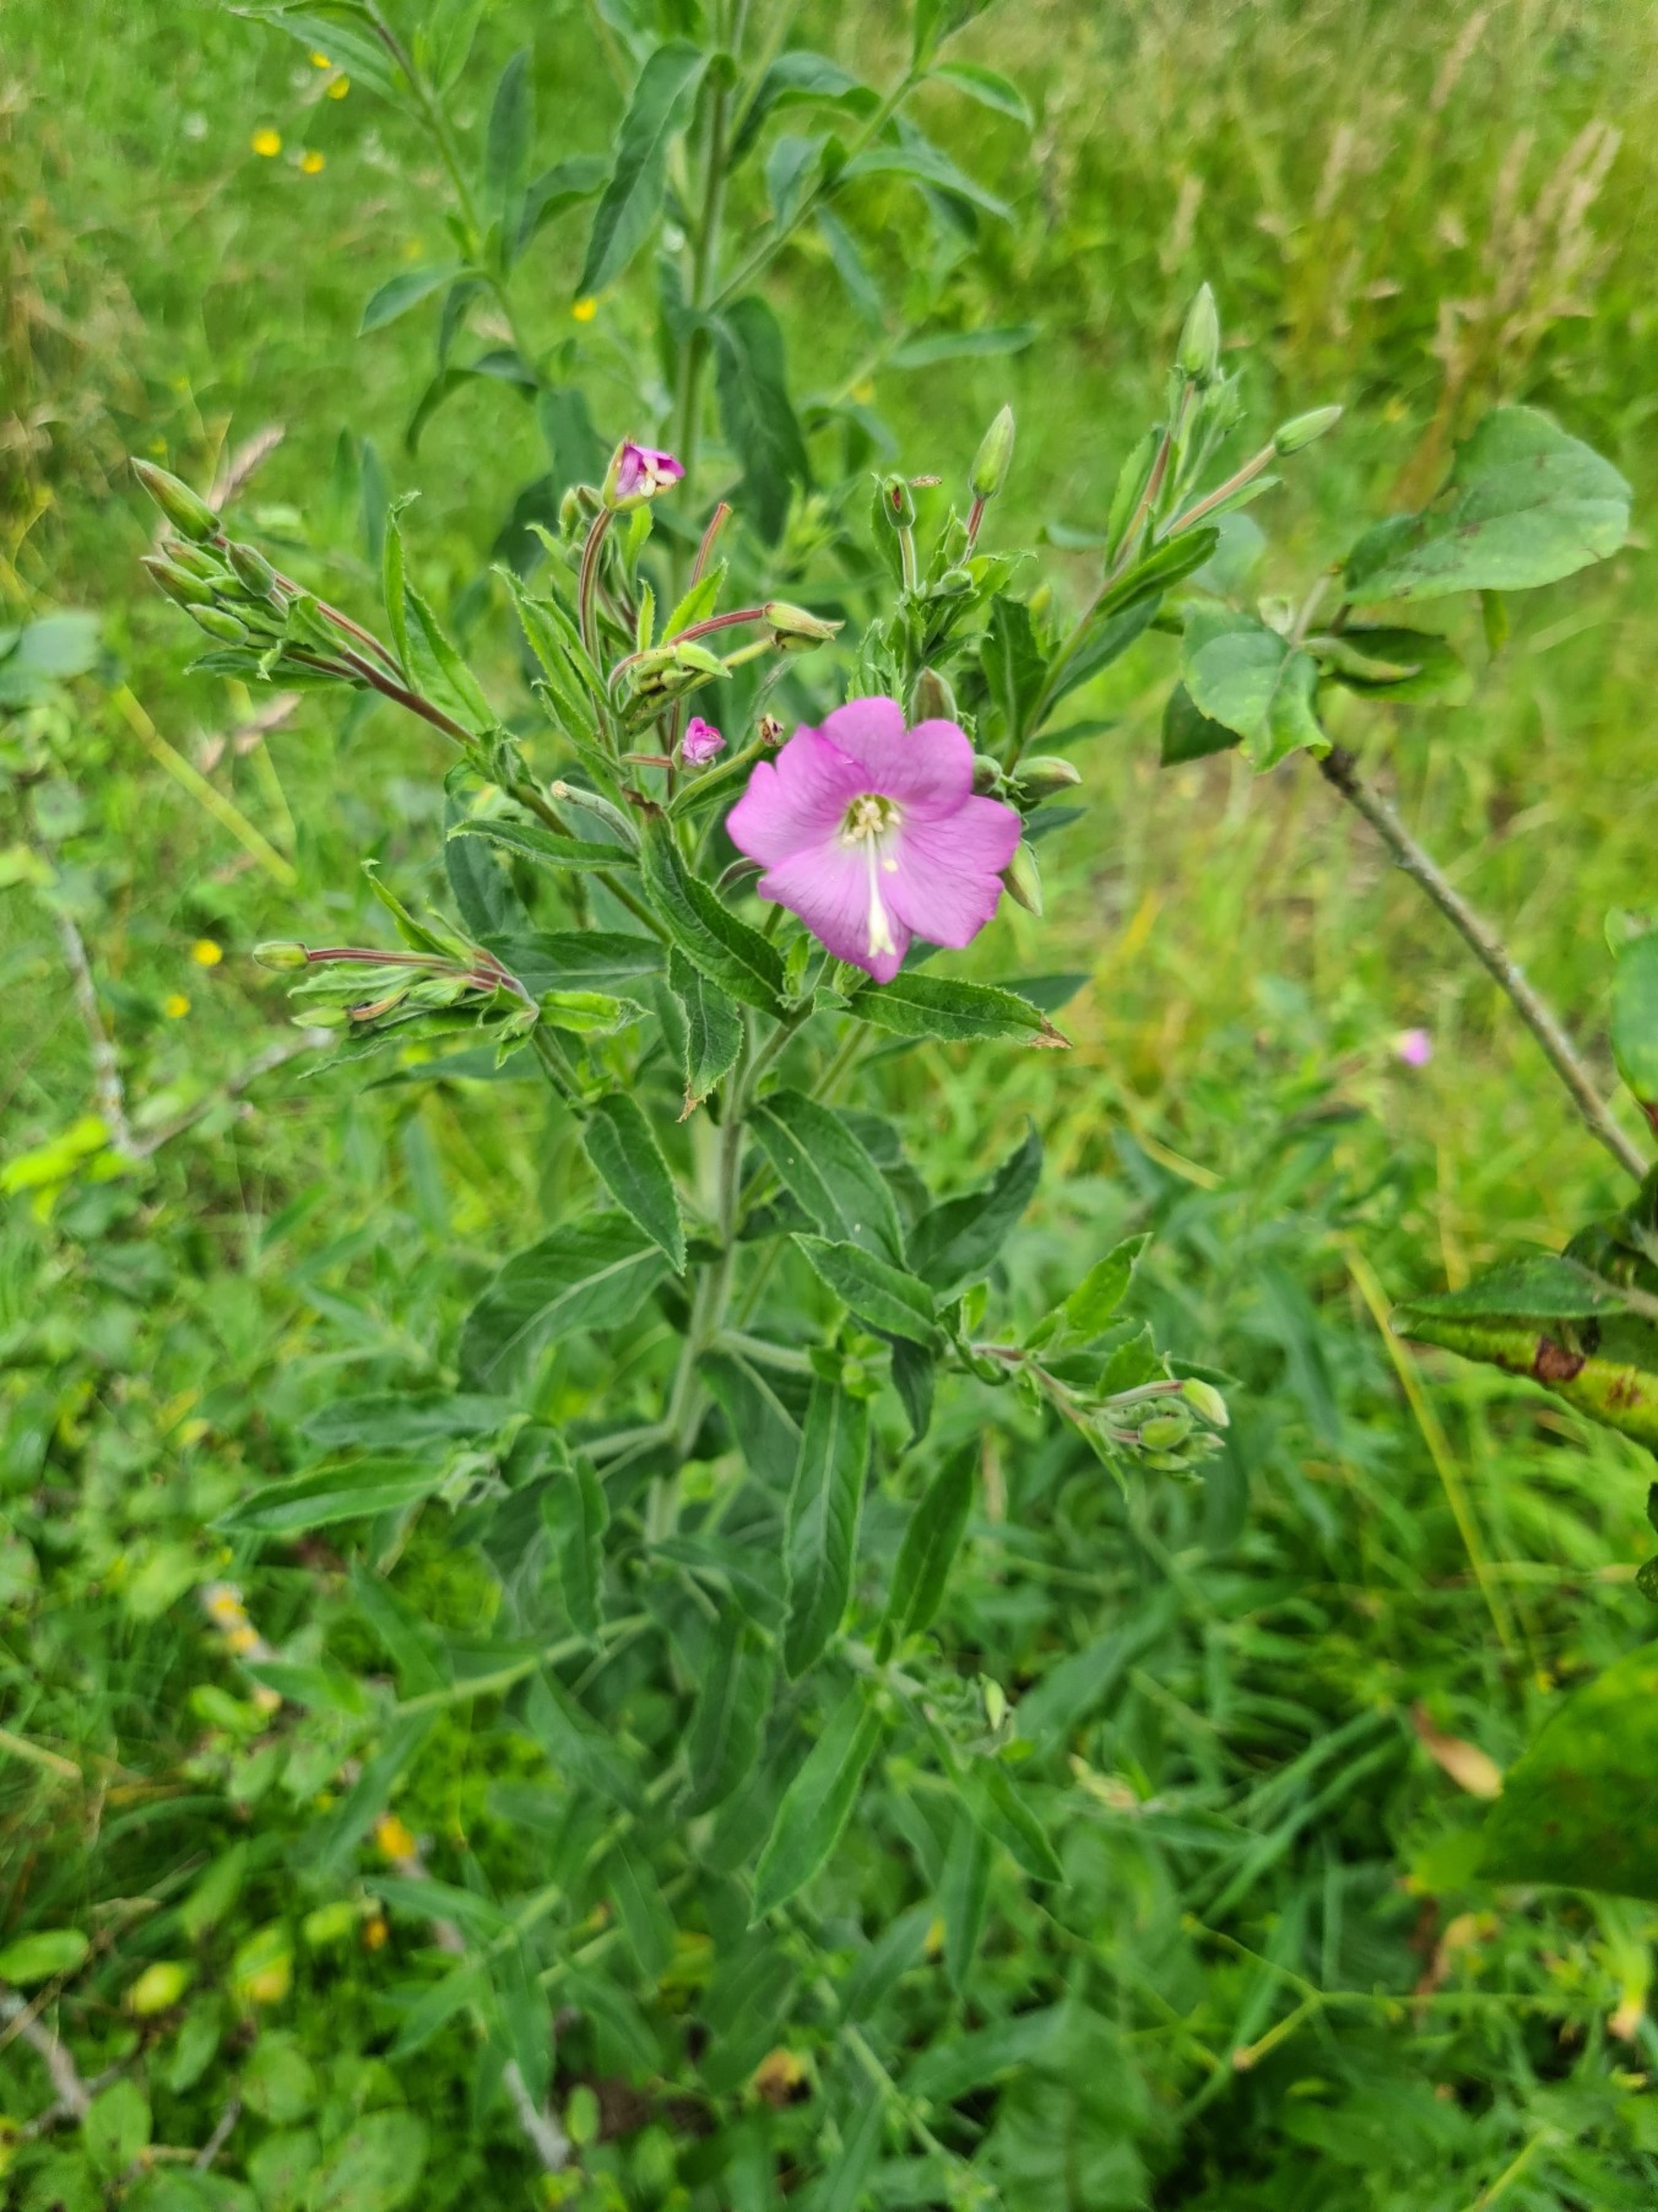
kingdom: Plantae
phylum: Tracheophyta
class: Magnoliopsida
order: Myrtales
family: Onagraceae
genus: Epilobium
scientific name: Epilobium hirsutum
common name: Lådden dueurt
